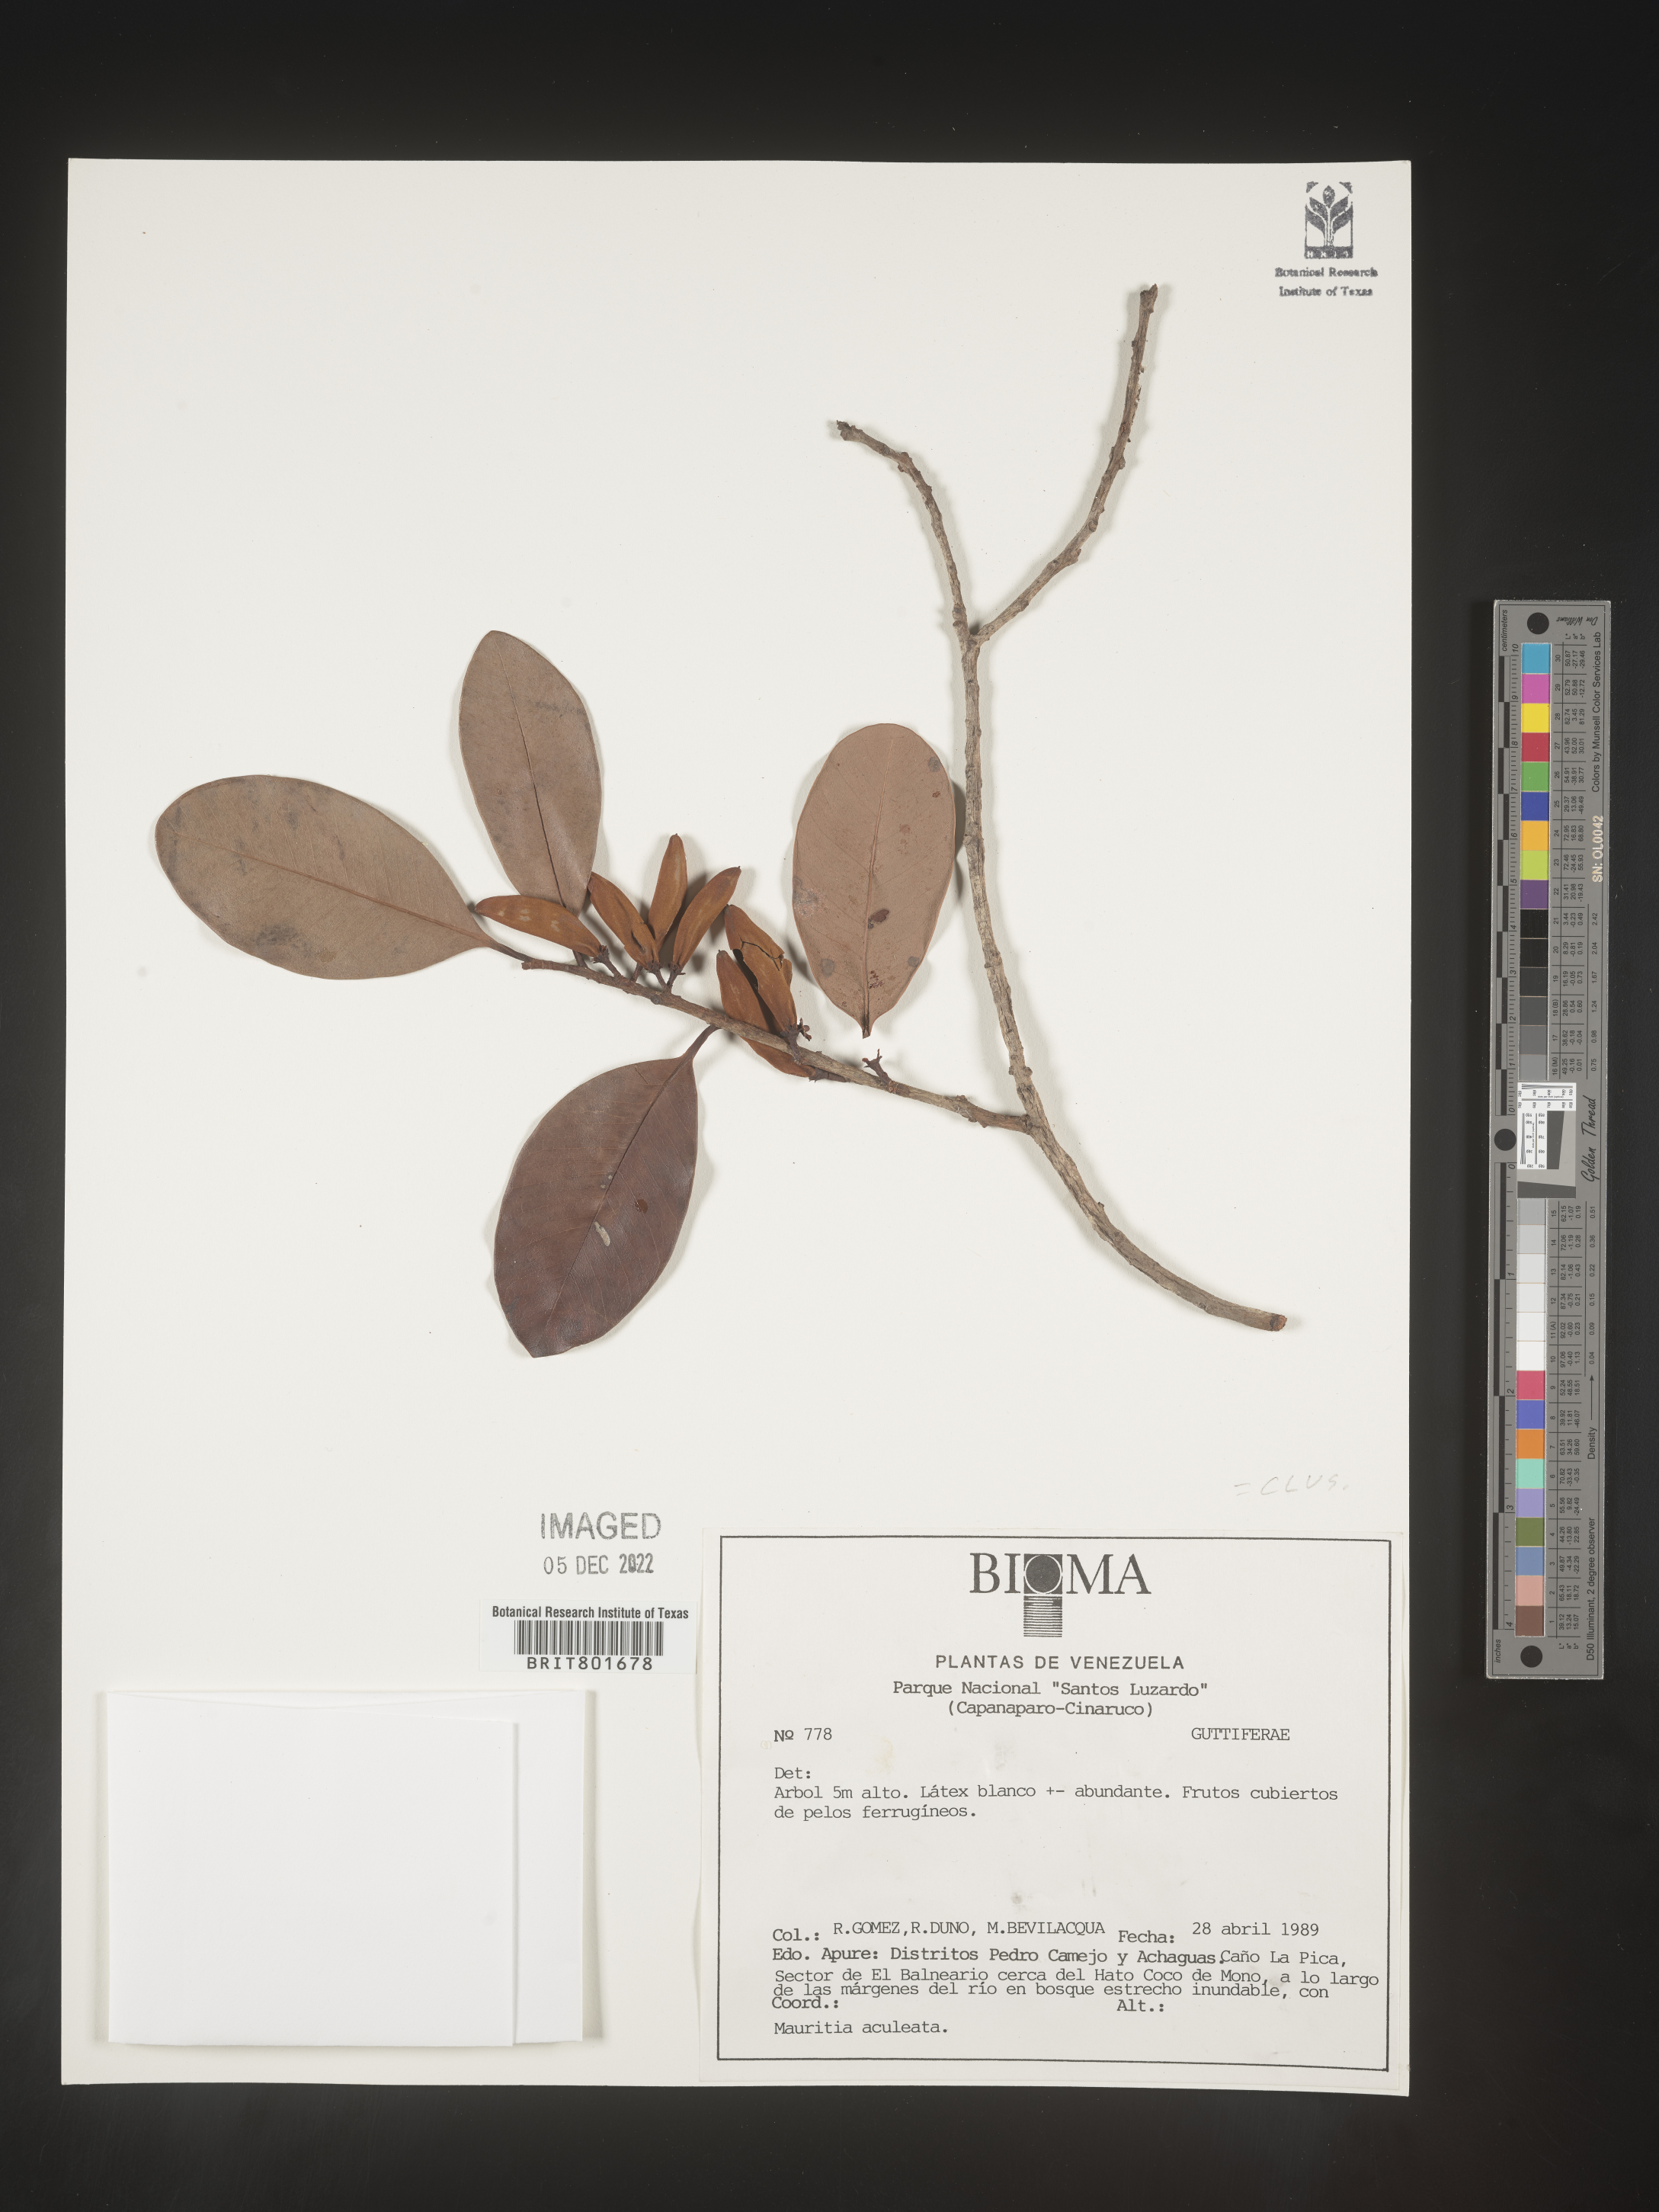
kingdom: Plantae
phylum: Tracheophyta
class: Magnoliopsida
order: Malpighiales
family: Clusiaceae
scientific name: Clusiaceae
